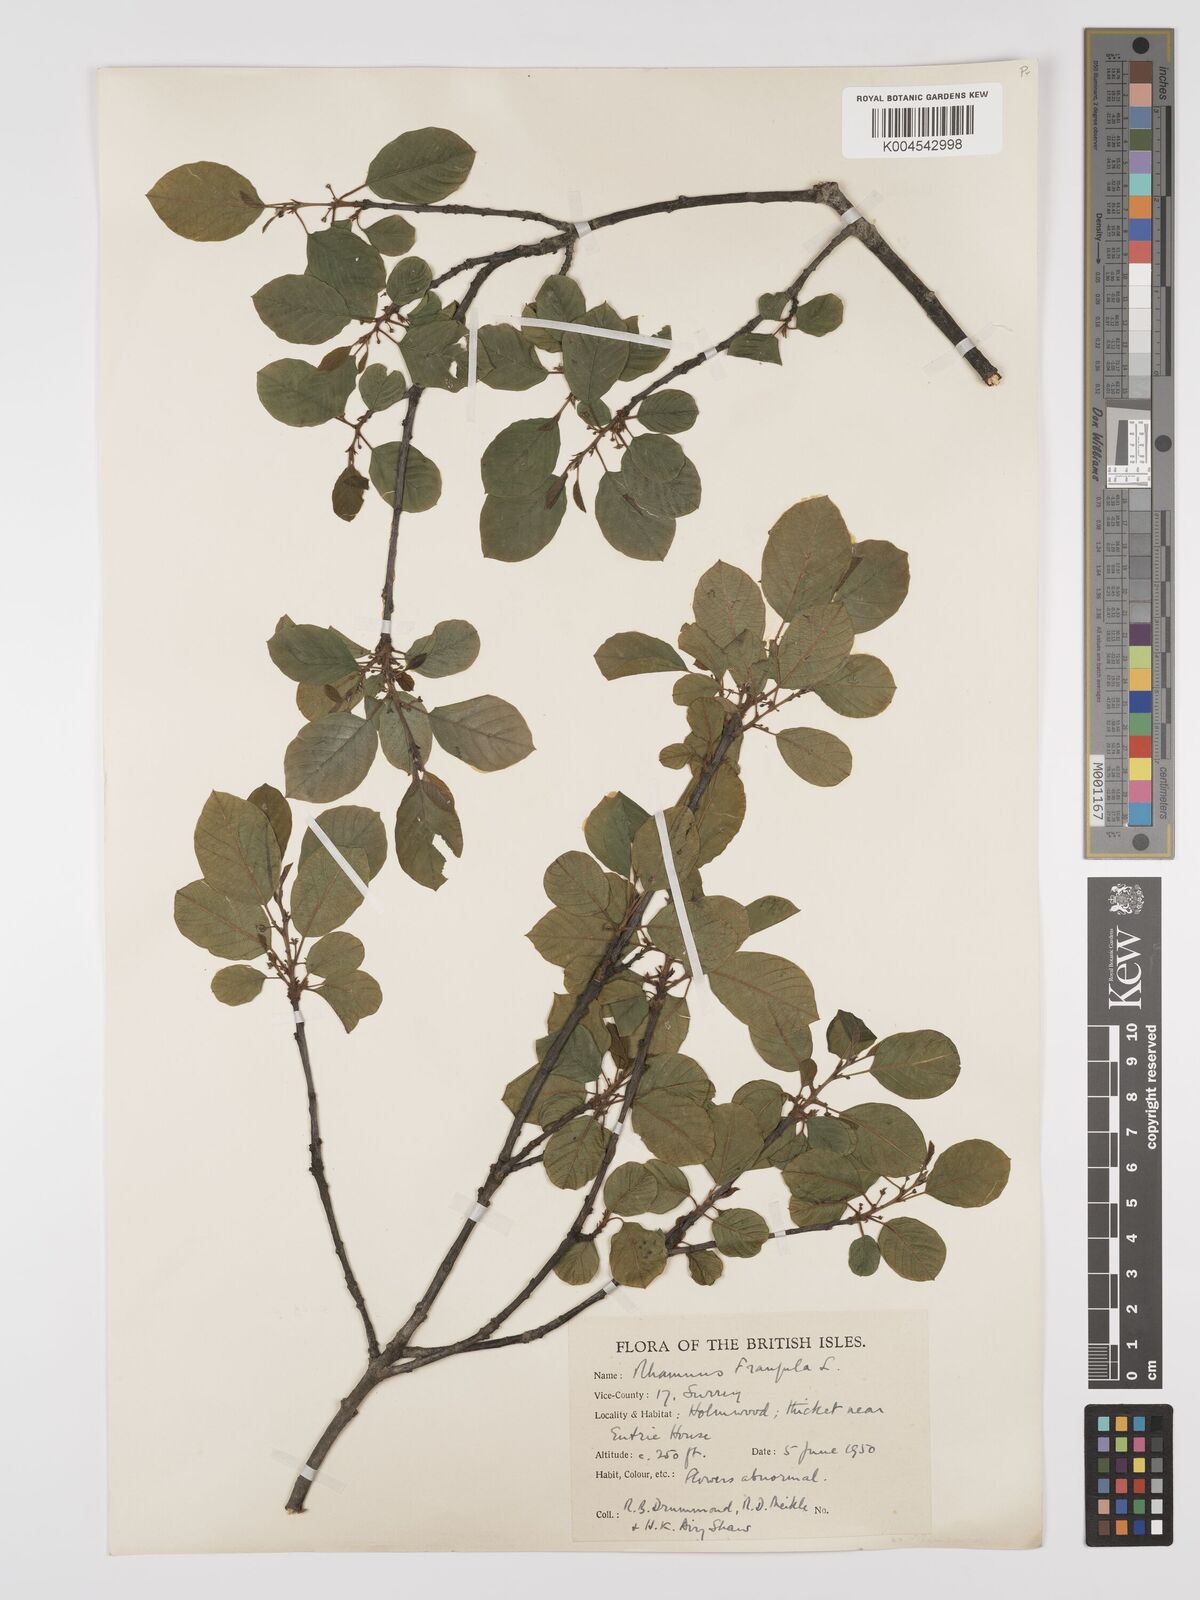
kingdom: Plantae
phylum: Tracheophyta
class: Magnoliopsida
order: Rosales
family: Rhamnaceae
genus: Frangula
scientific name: Frangula alnus
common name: Alder buckthorn
